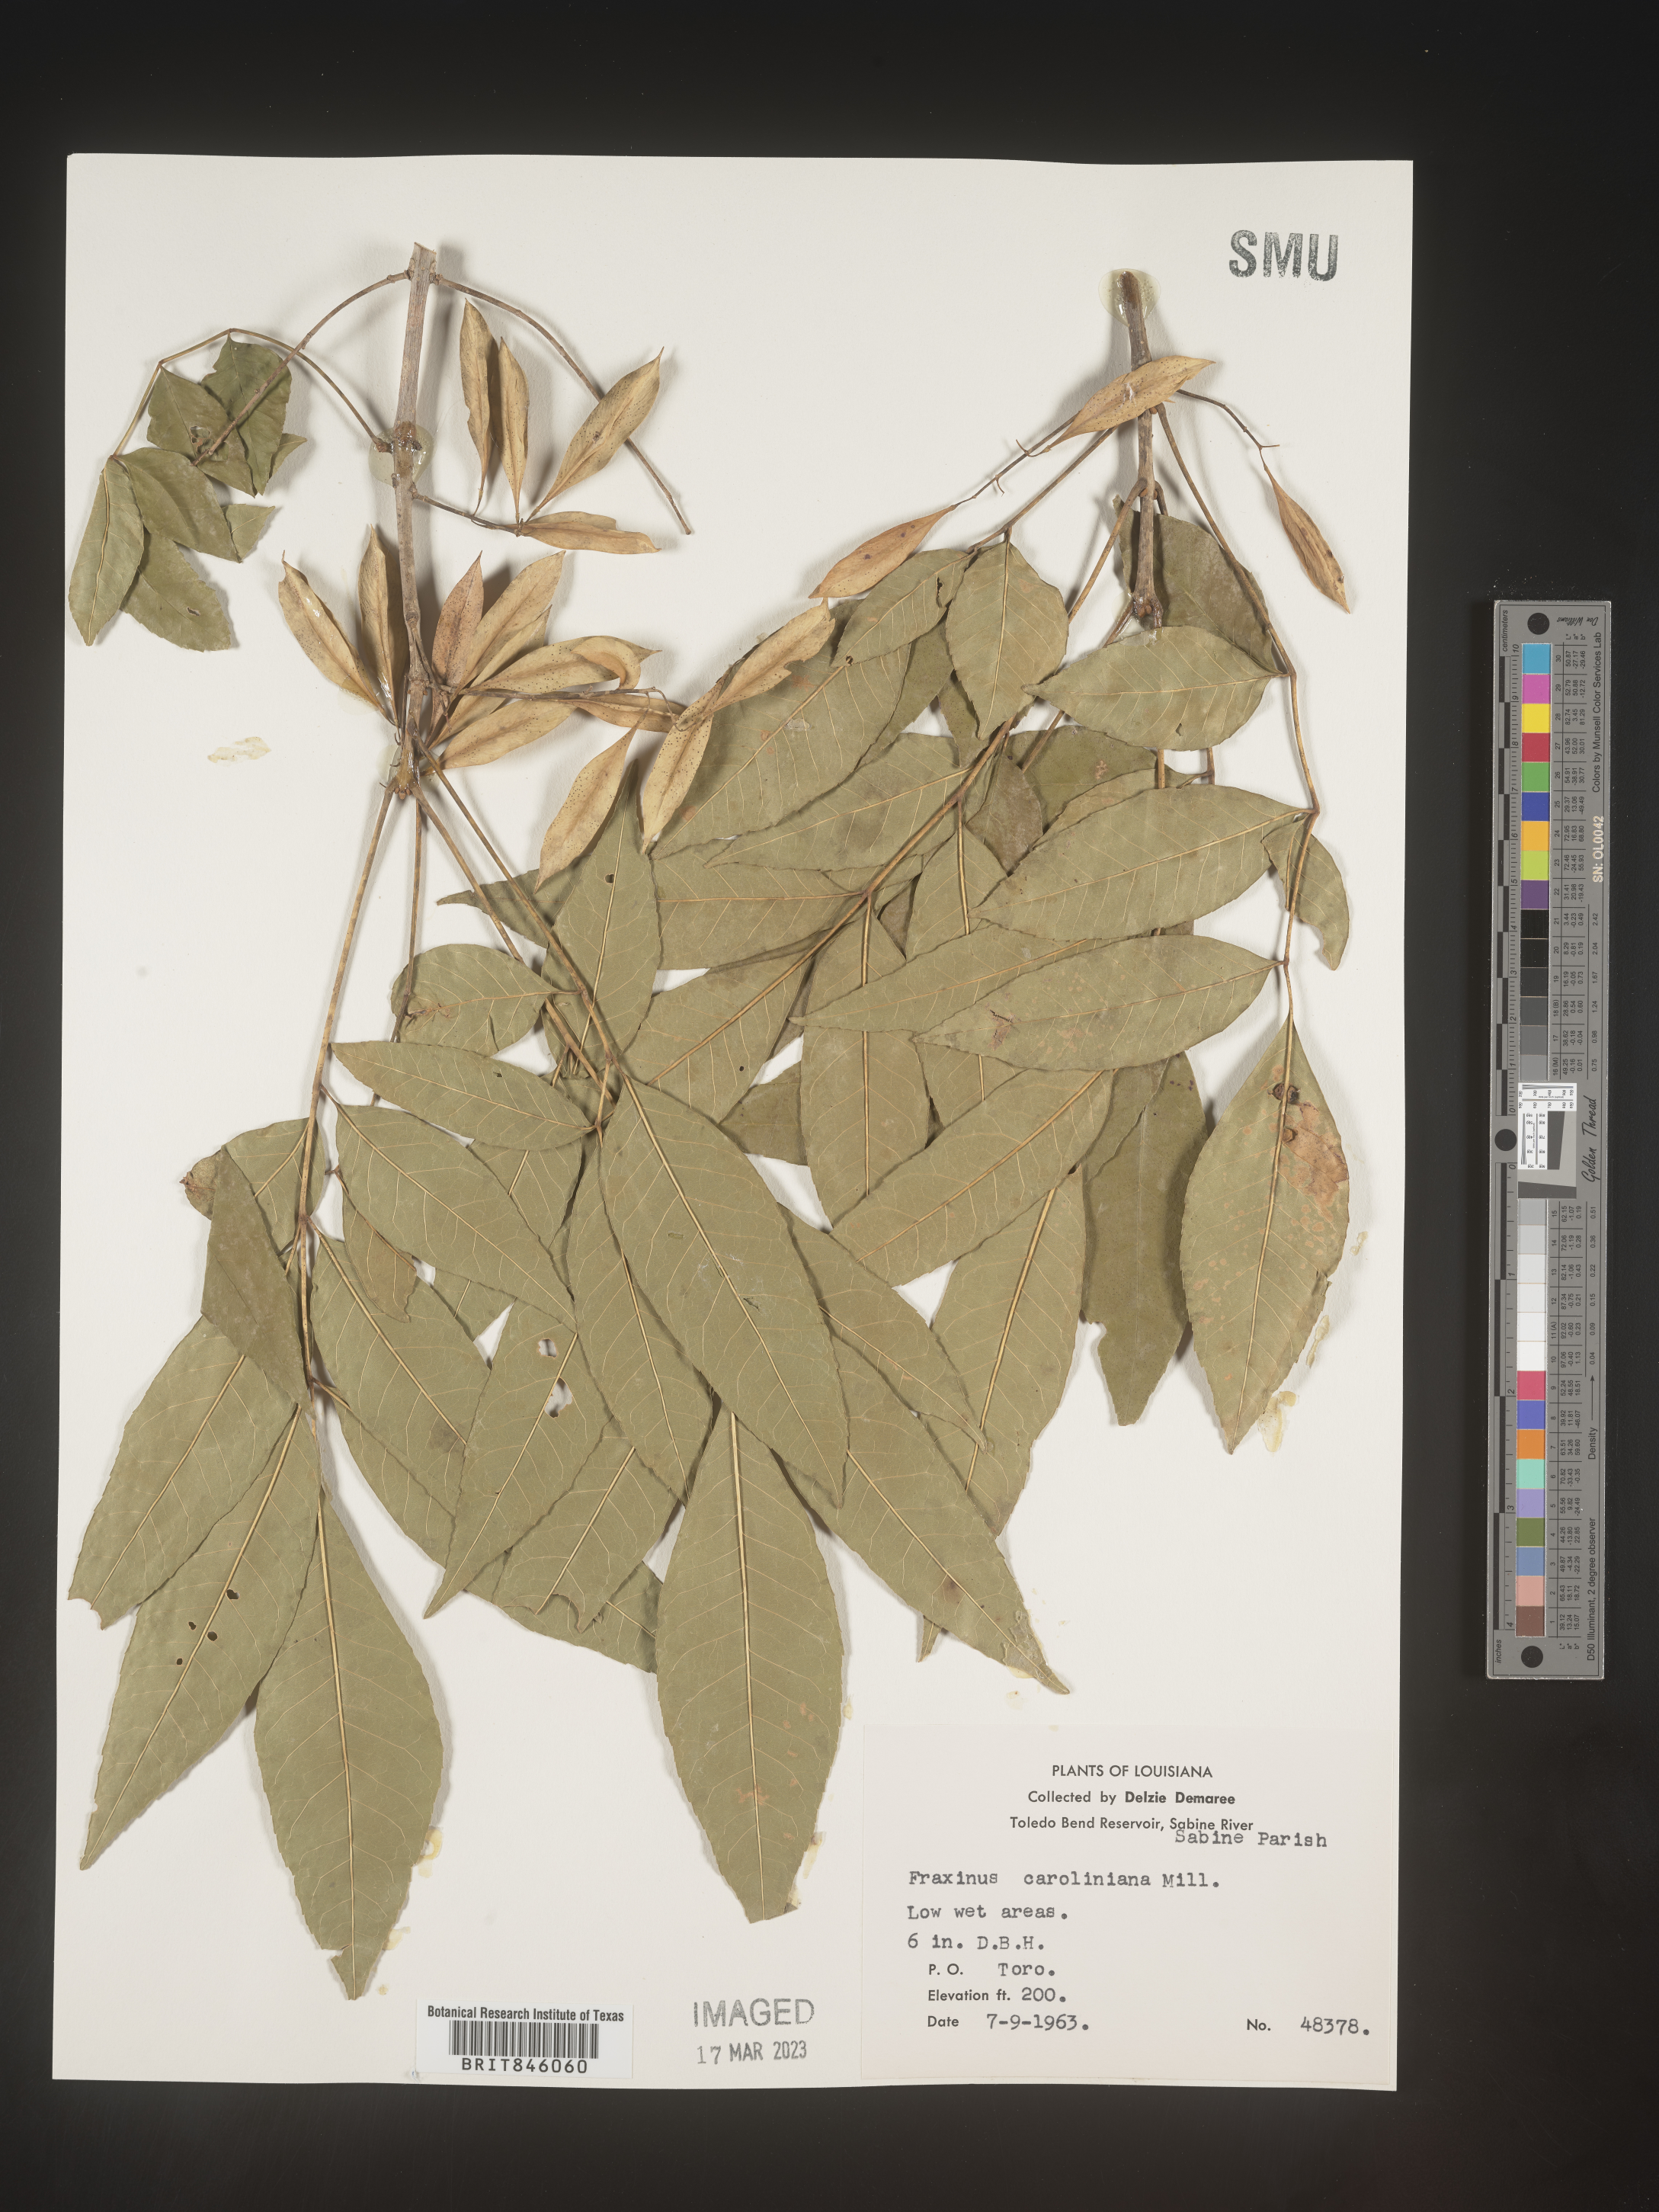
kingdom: Plantae
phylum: Tracheophyta
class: Magnoliopsida
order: Lamiales
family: Oleaceae
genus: Fraxinus
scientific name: Fraxinus caroliniana
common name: Carolina ash
